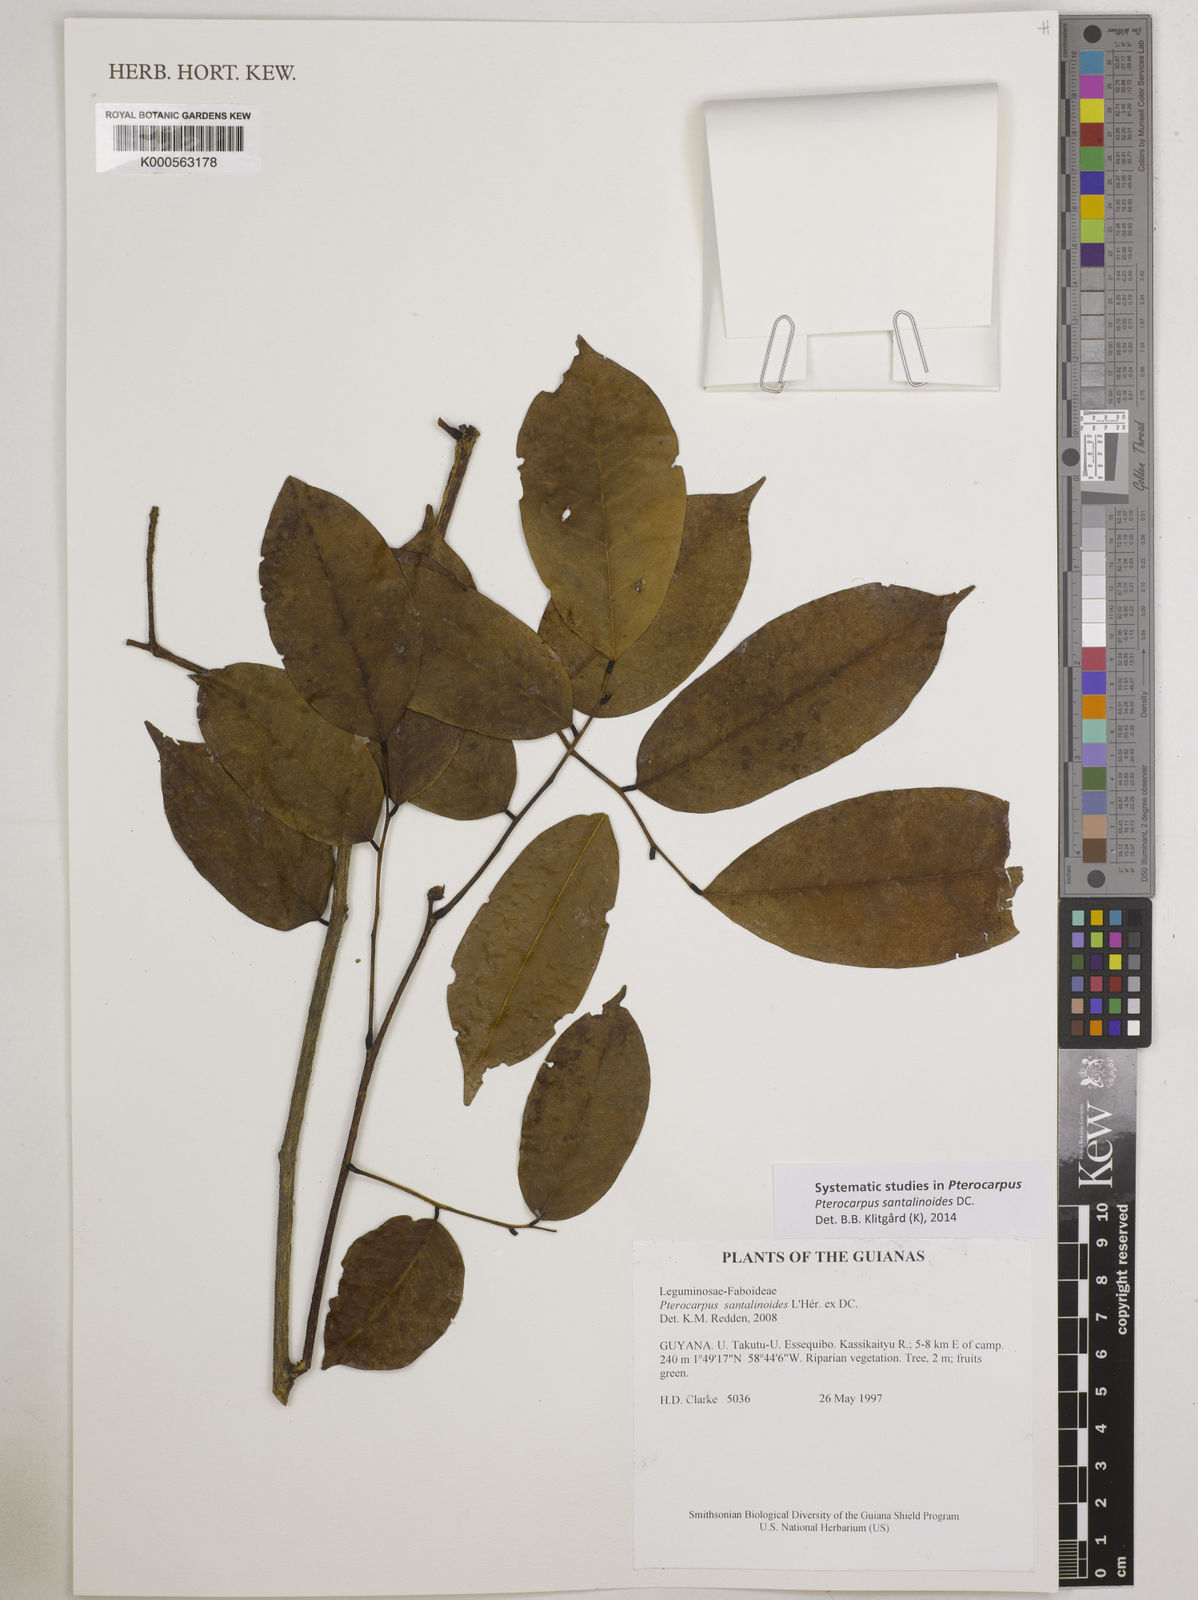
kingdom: Plantae
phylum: Tracheophyta
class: Magnoliopsida
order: Fabales
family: Fabaceae
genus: Pterocarpus
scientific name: Pterocarpus santalinoides
